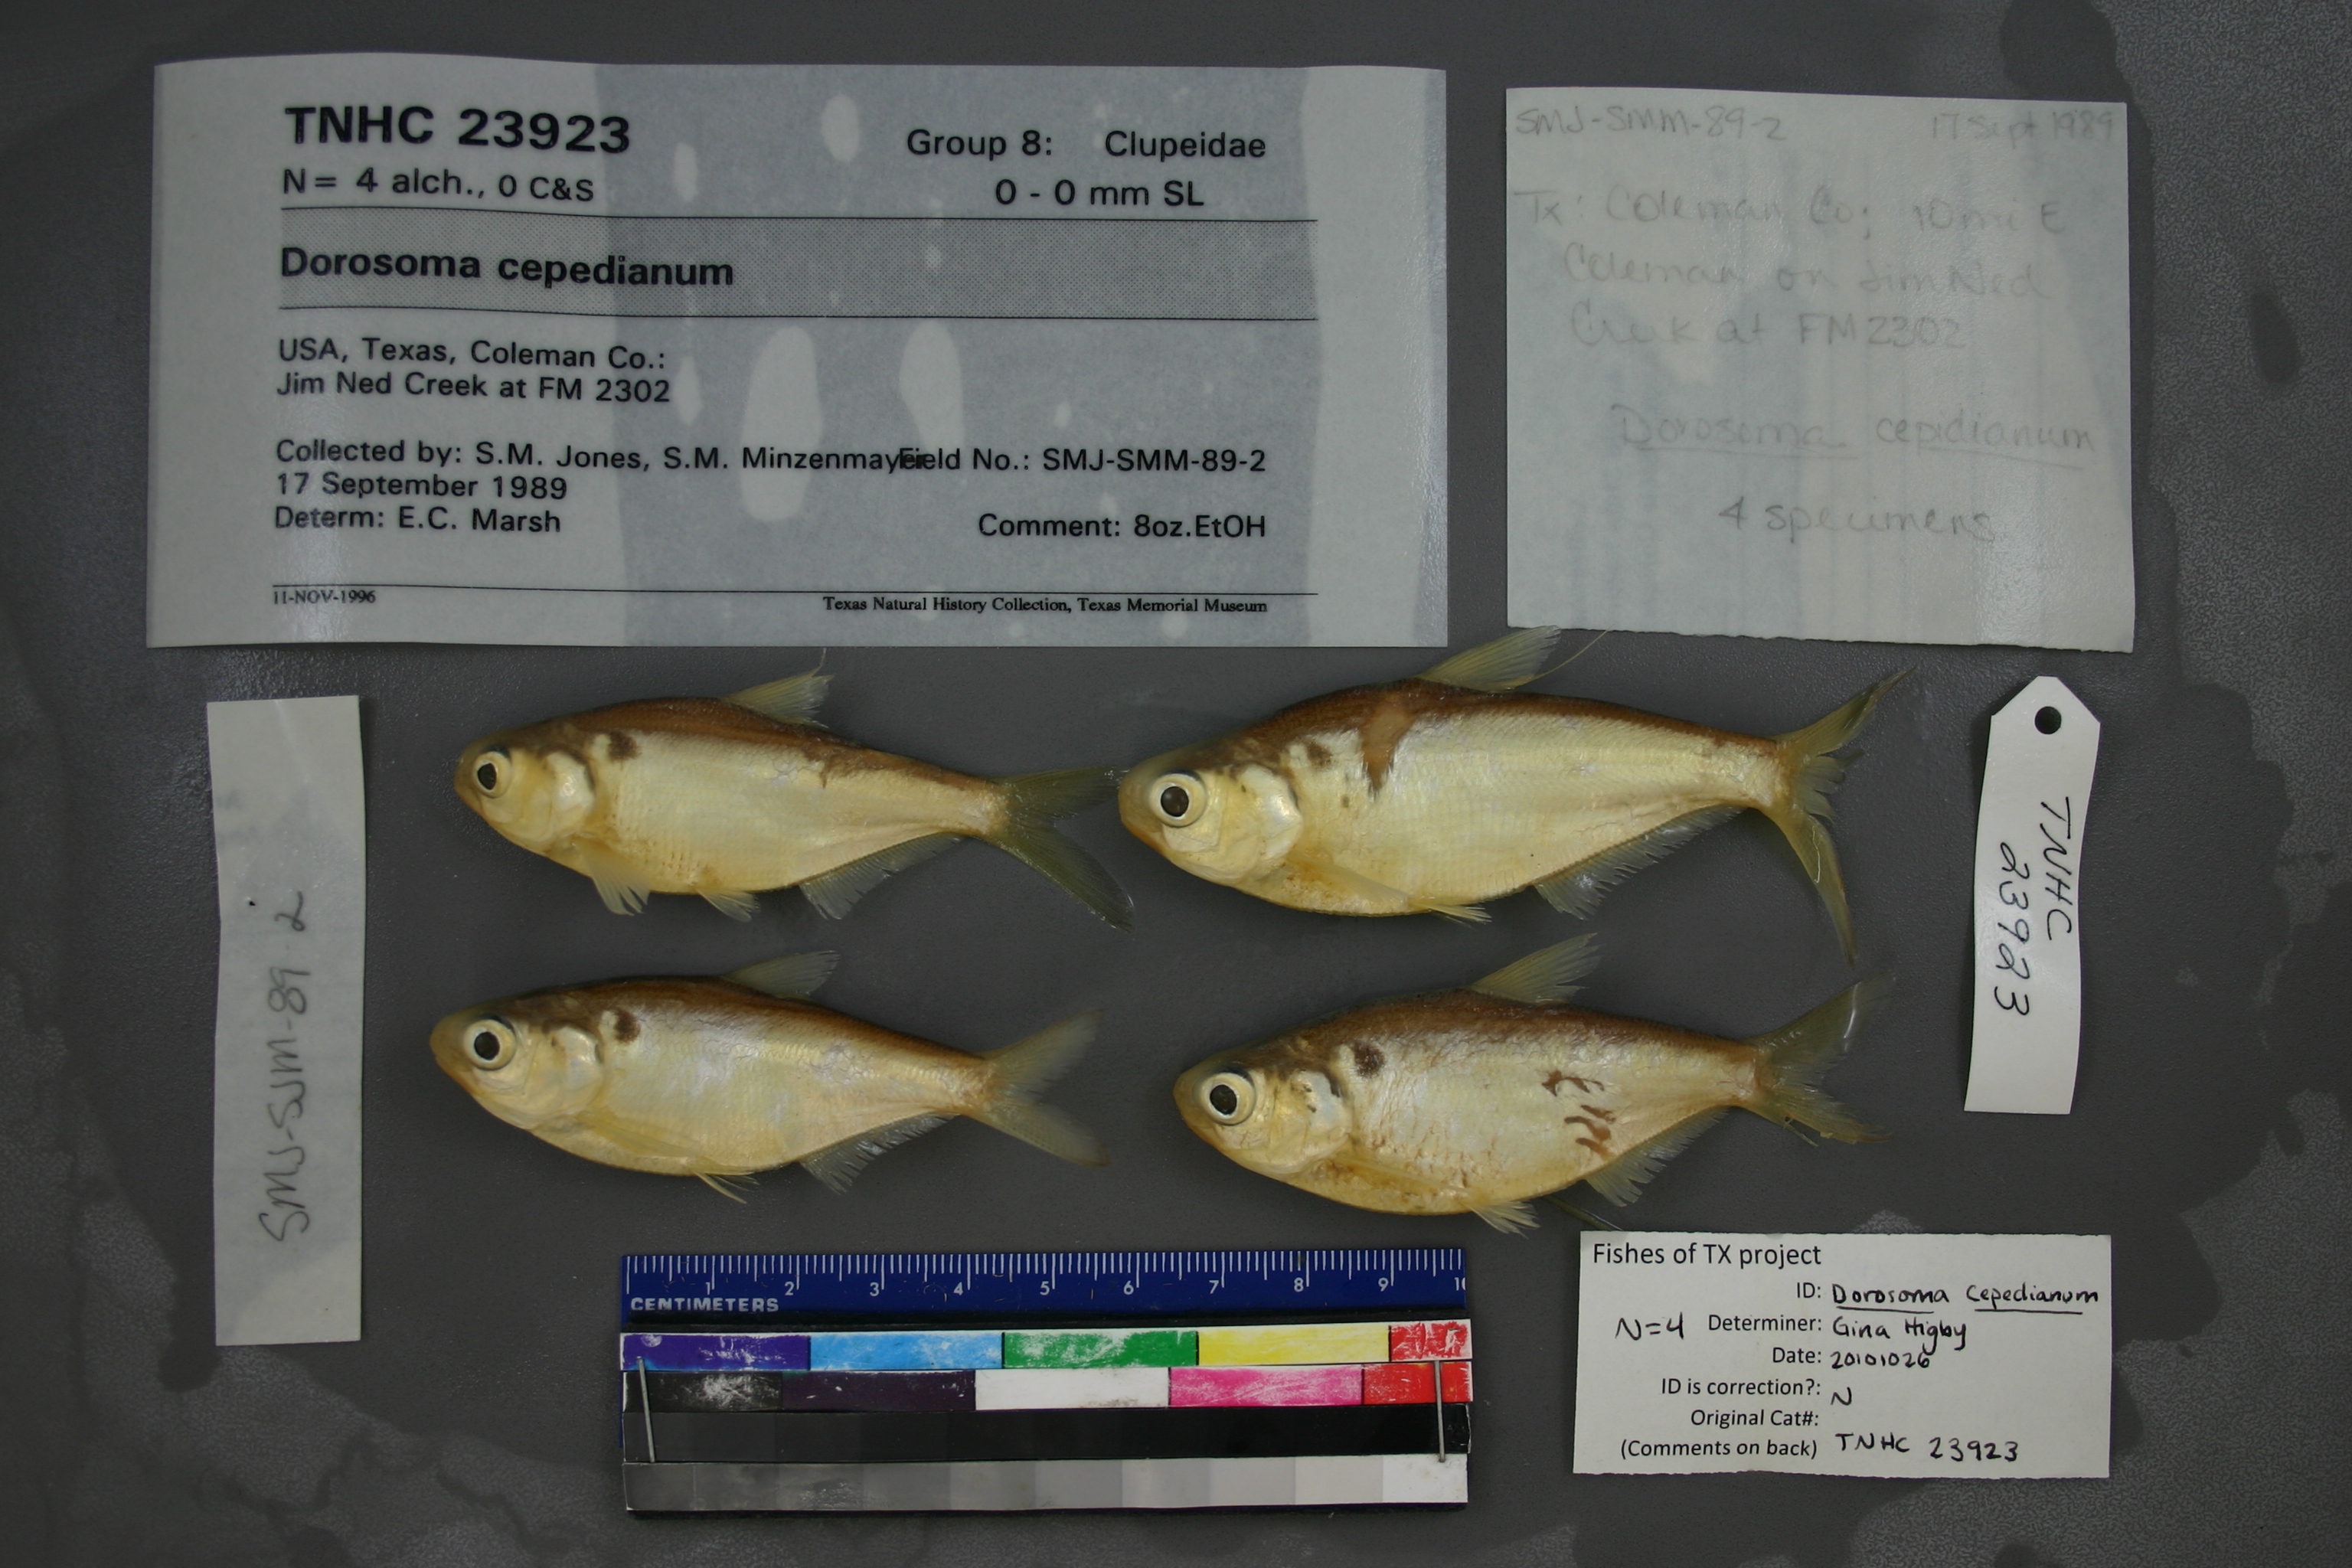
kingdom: Animalia
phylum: Chordata
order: Clupeiformes
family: Clupeidae
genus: Dorosoma
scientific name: Dorosoma cepedianum
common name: Gizzard shad
